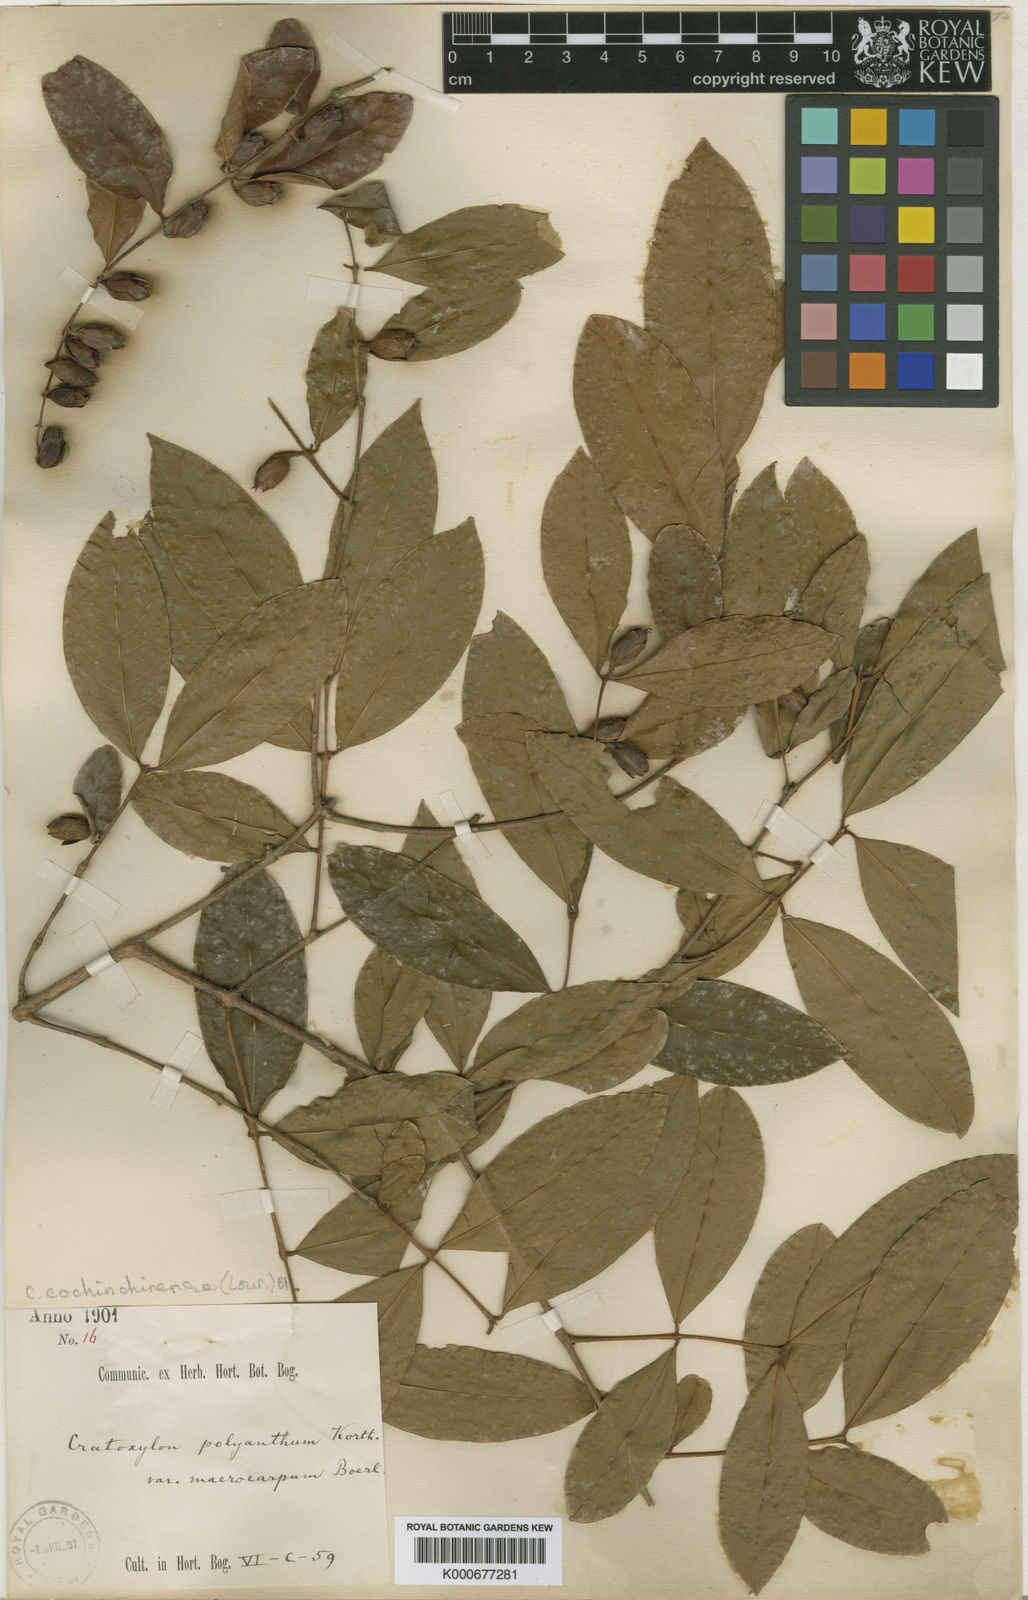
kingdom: Plantae
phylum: Tracheophyta
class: Magnoliopsida
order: Malpighiales
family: Hypericaceae
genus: Cratoxylum
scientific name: Cratoxylum cochinchinense
